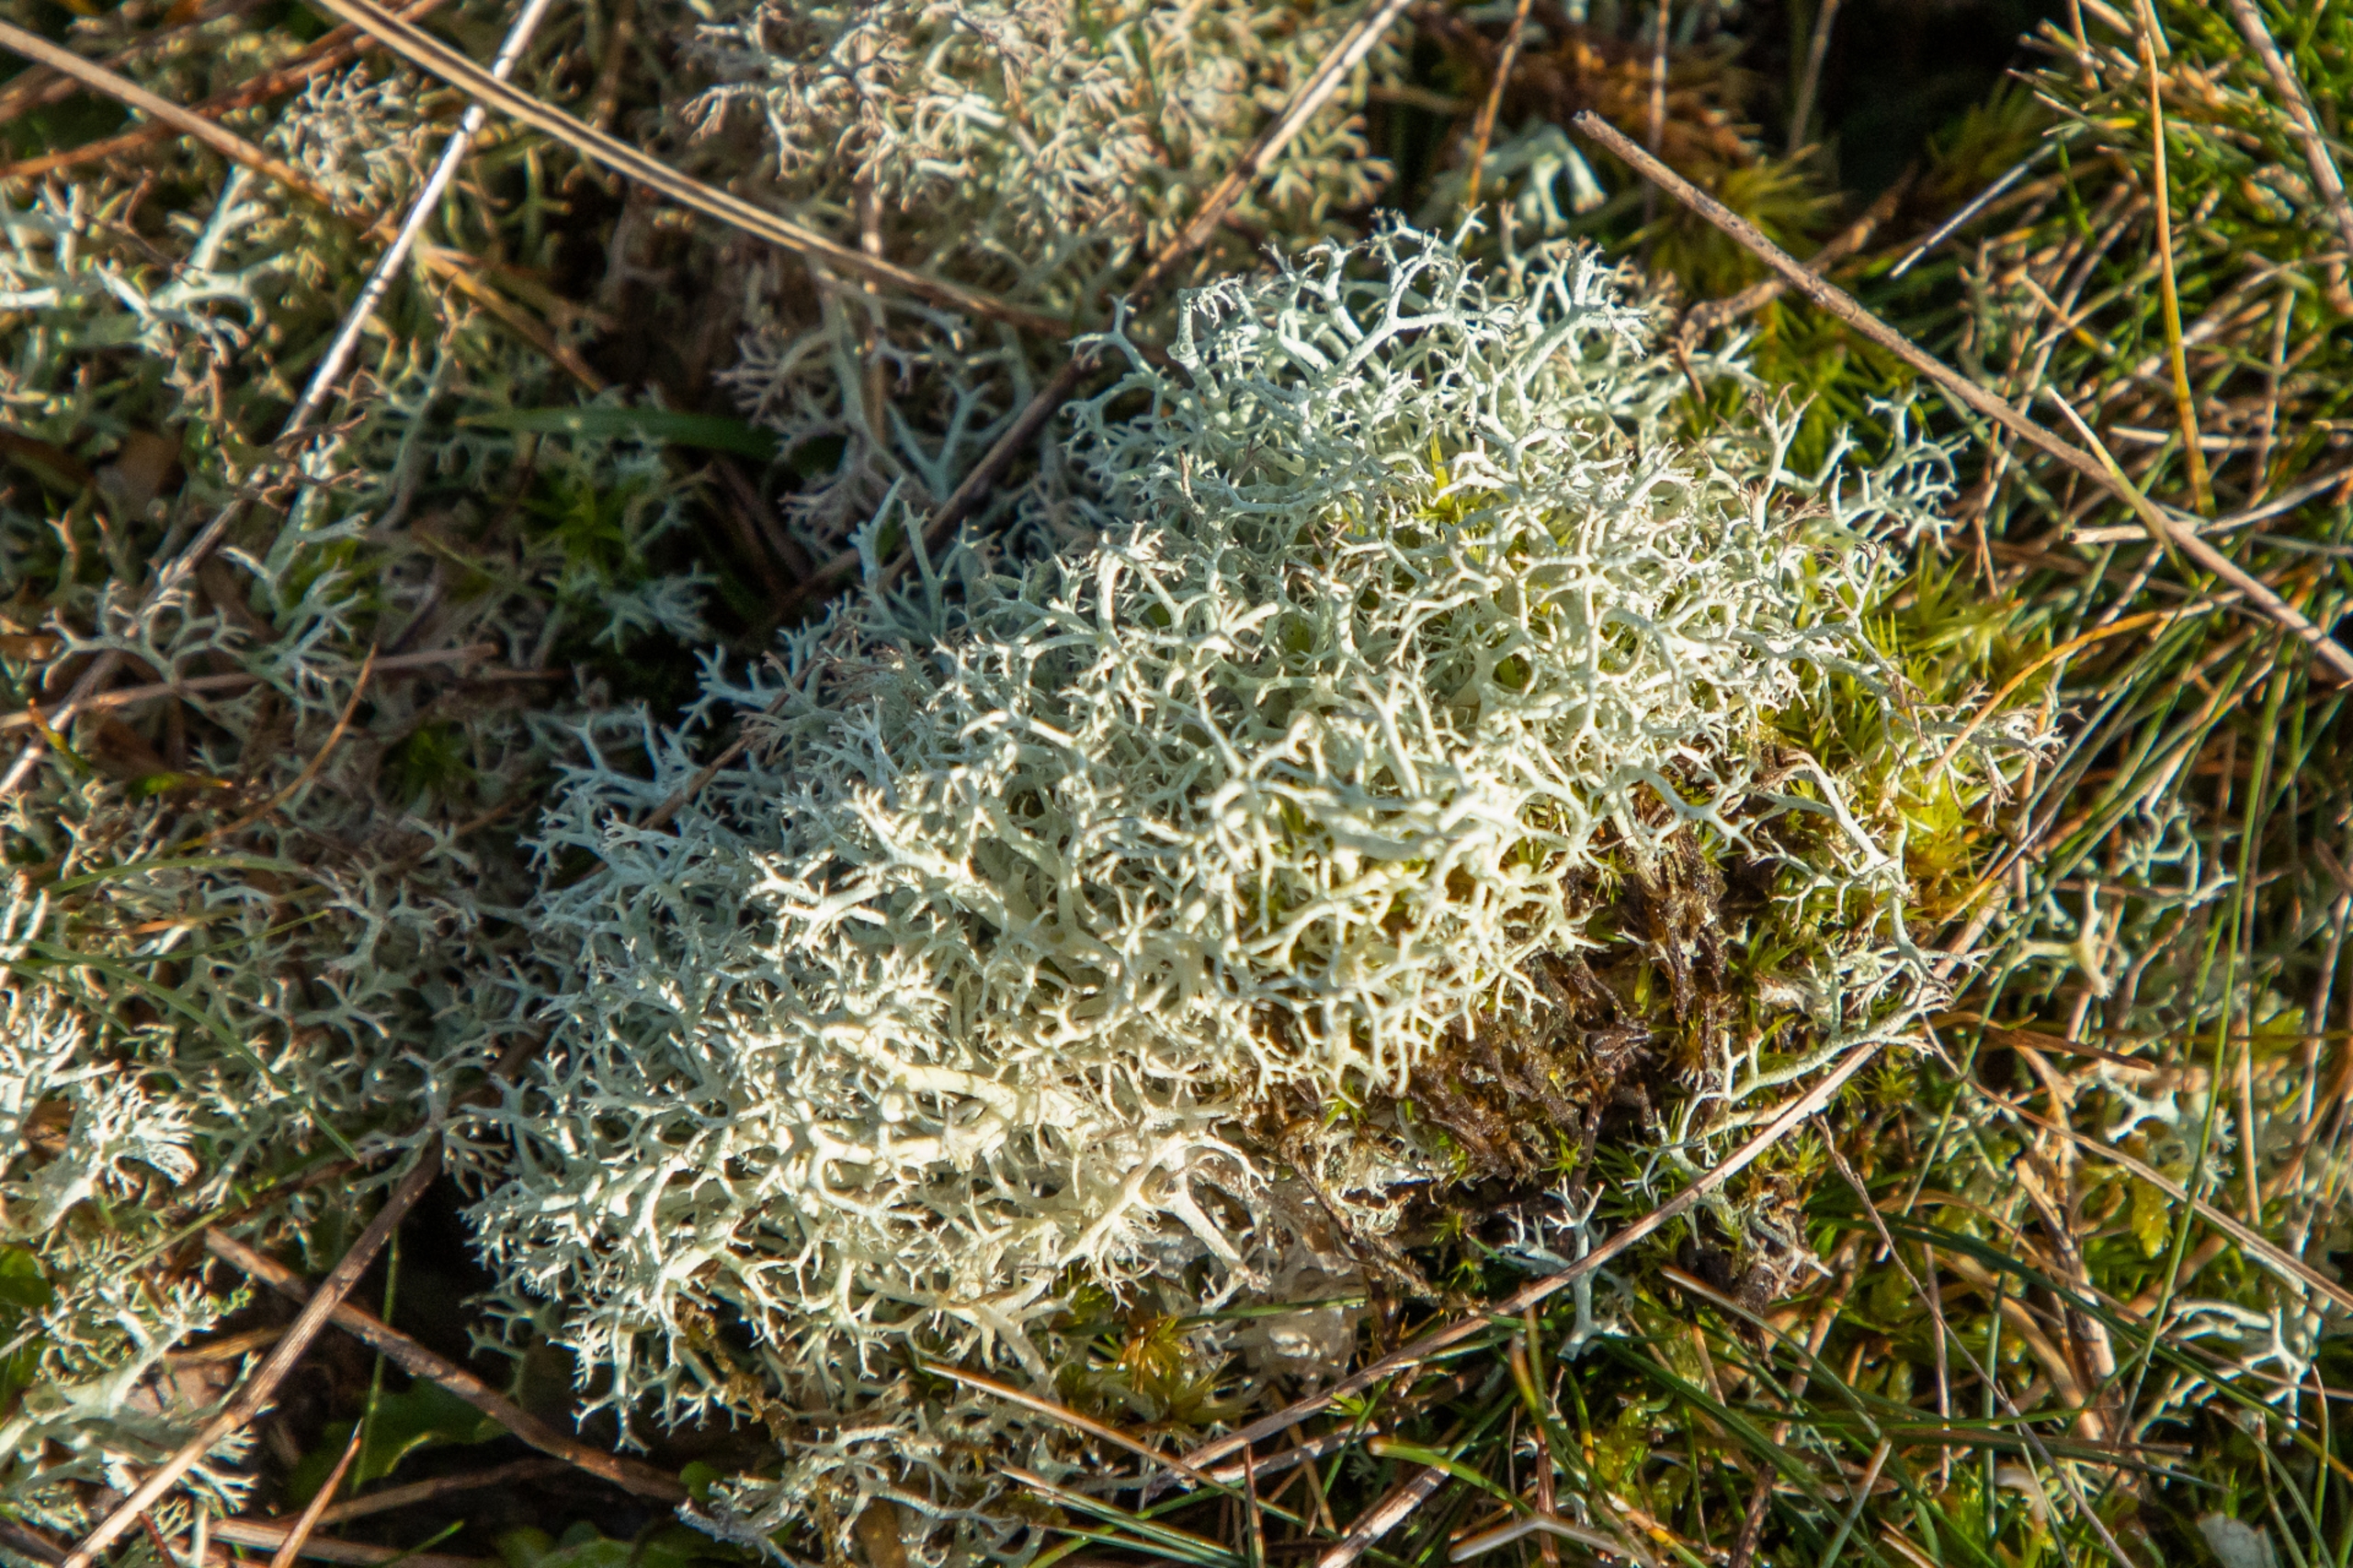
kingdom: Fungi
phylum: Ascomycota
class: Lecanoromycetes
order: Lecanorales
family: Cladoniaceae
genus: Cladonia
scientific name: Cladonia portentosa
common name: Hede-rensdyrlav
